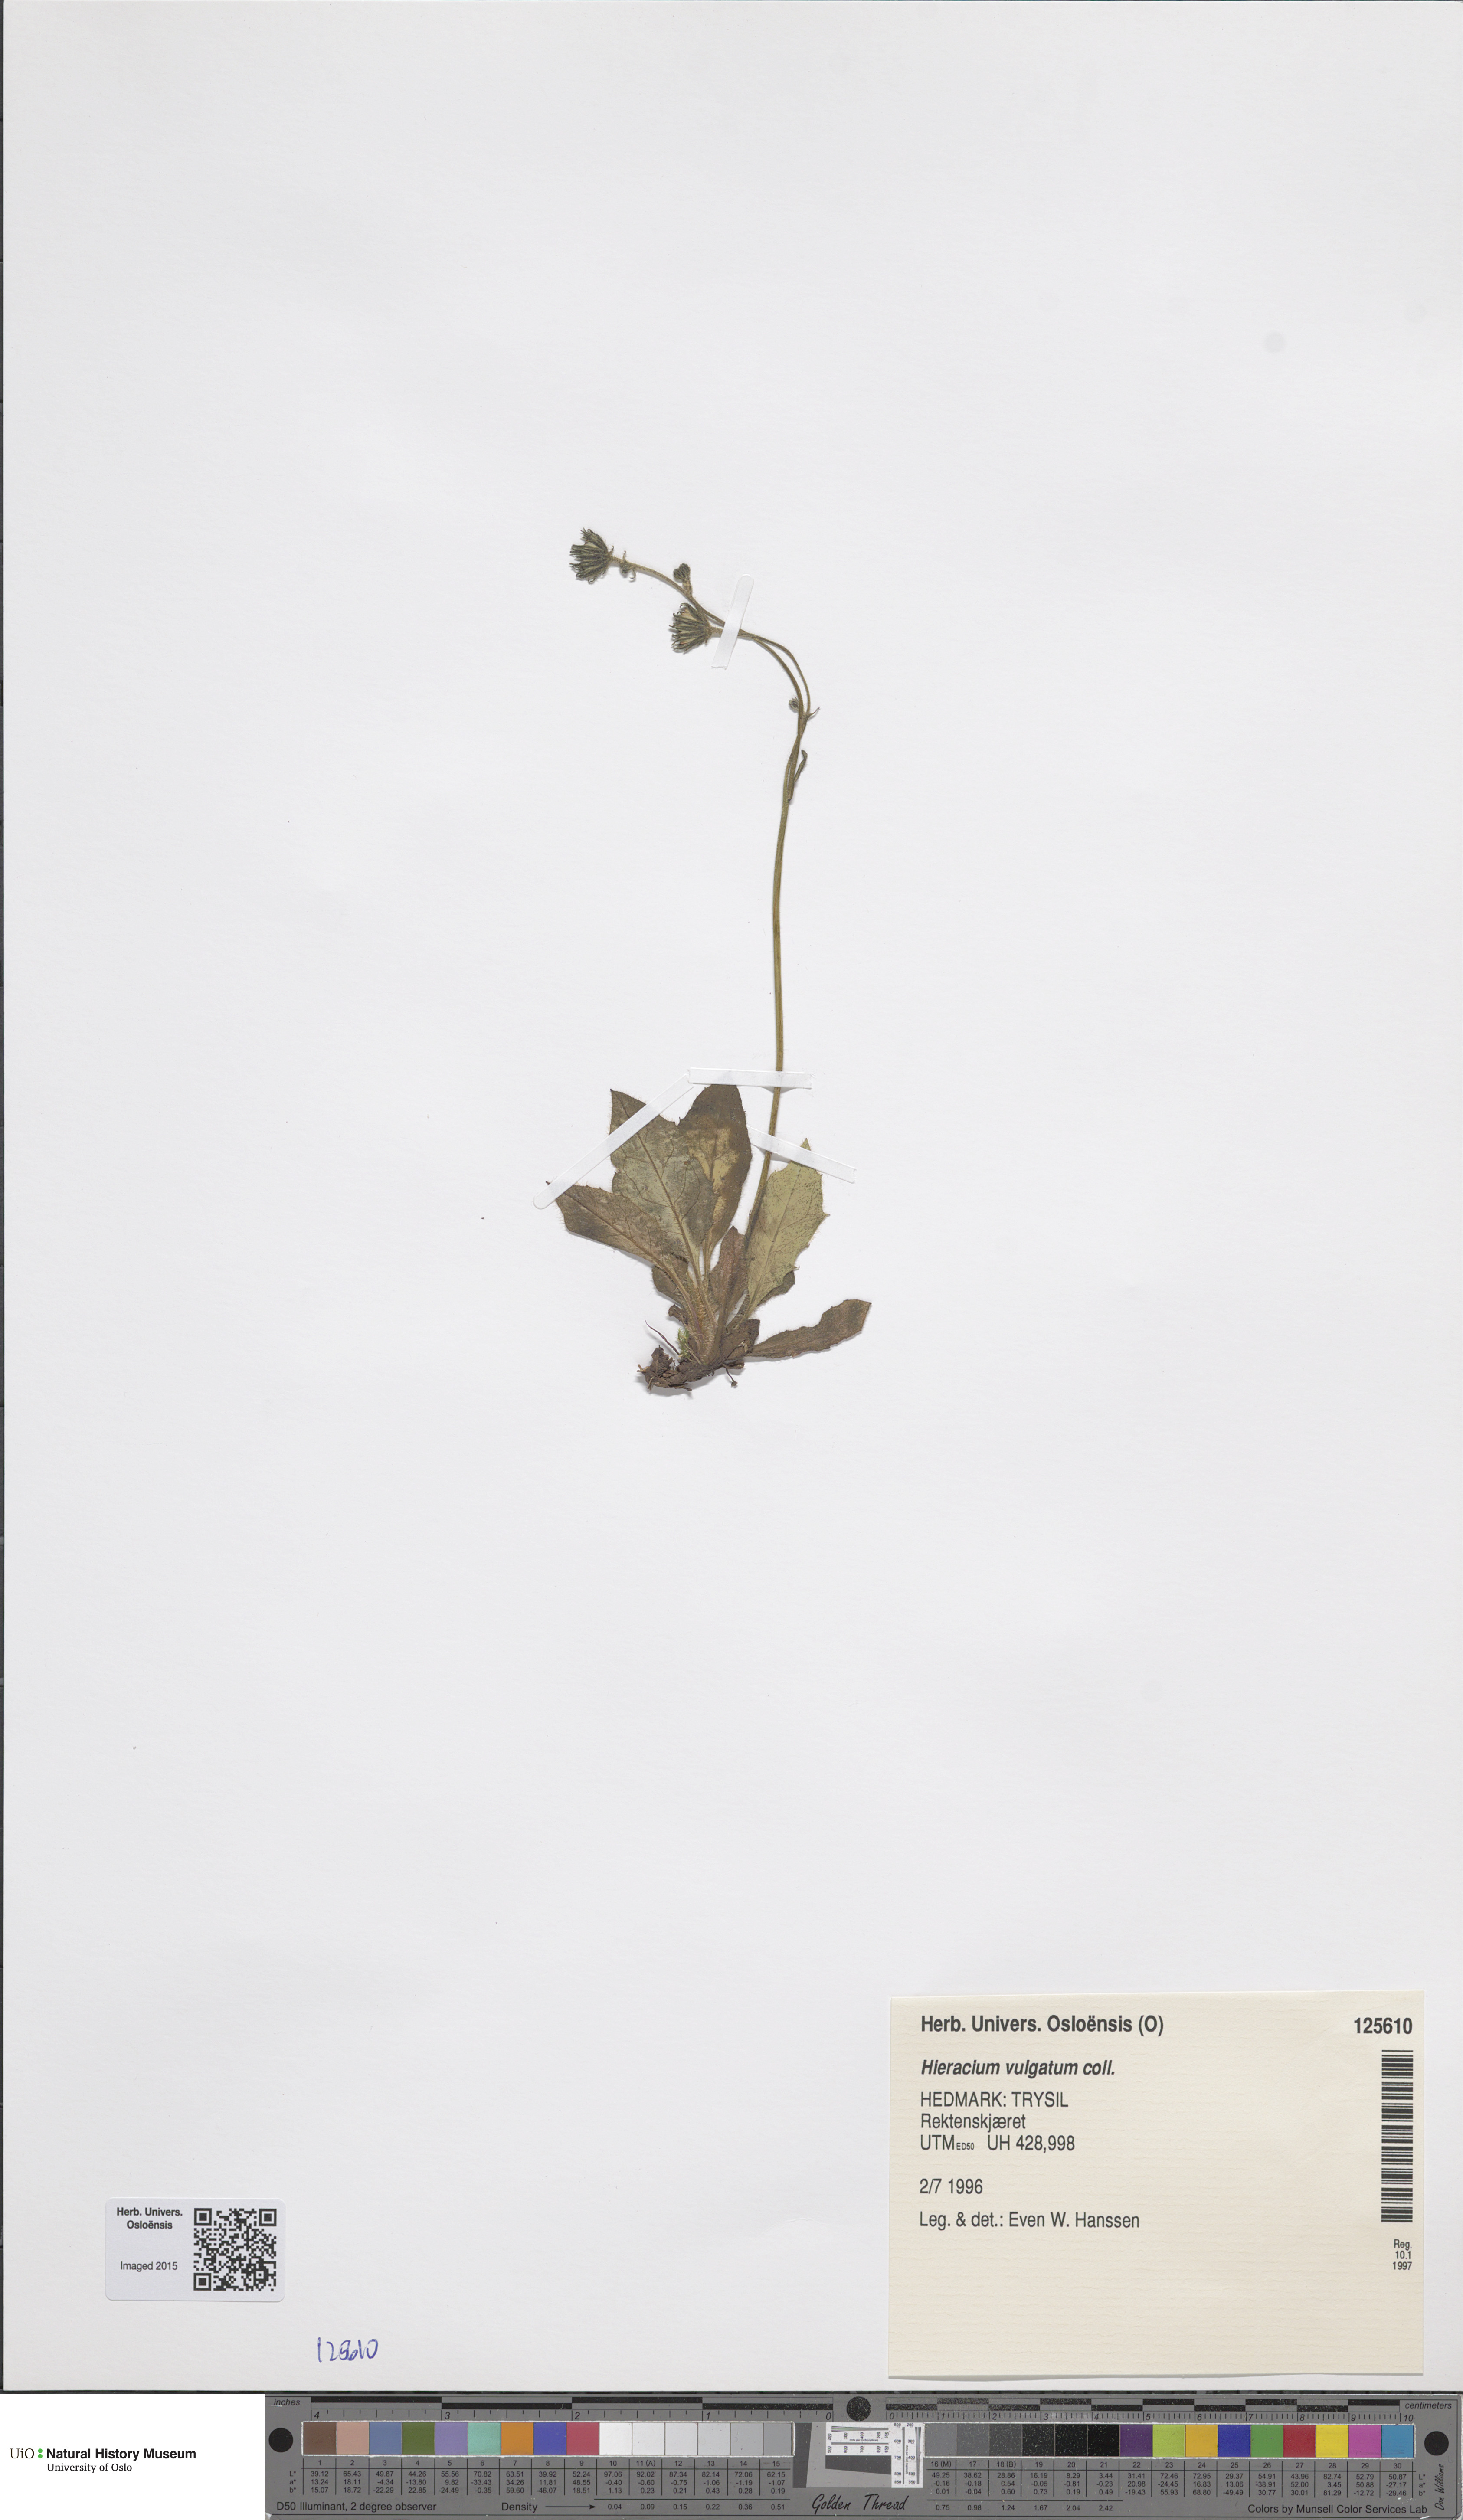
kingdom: Plantae
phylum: Tracheophyta
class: Magnoliopsida
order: Asterales
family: Asteraceae
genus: Hieracium
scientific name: Hieracium vulgatum
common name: Common hawkweed
